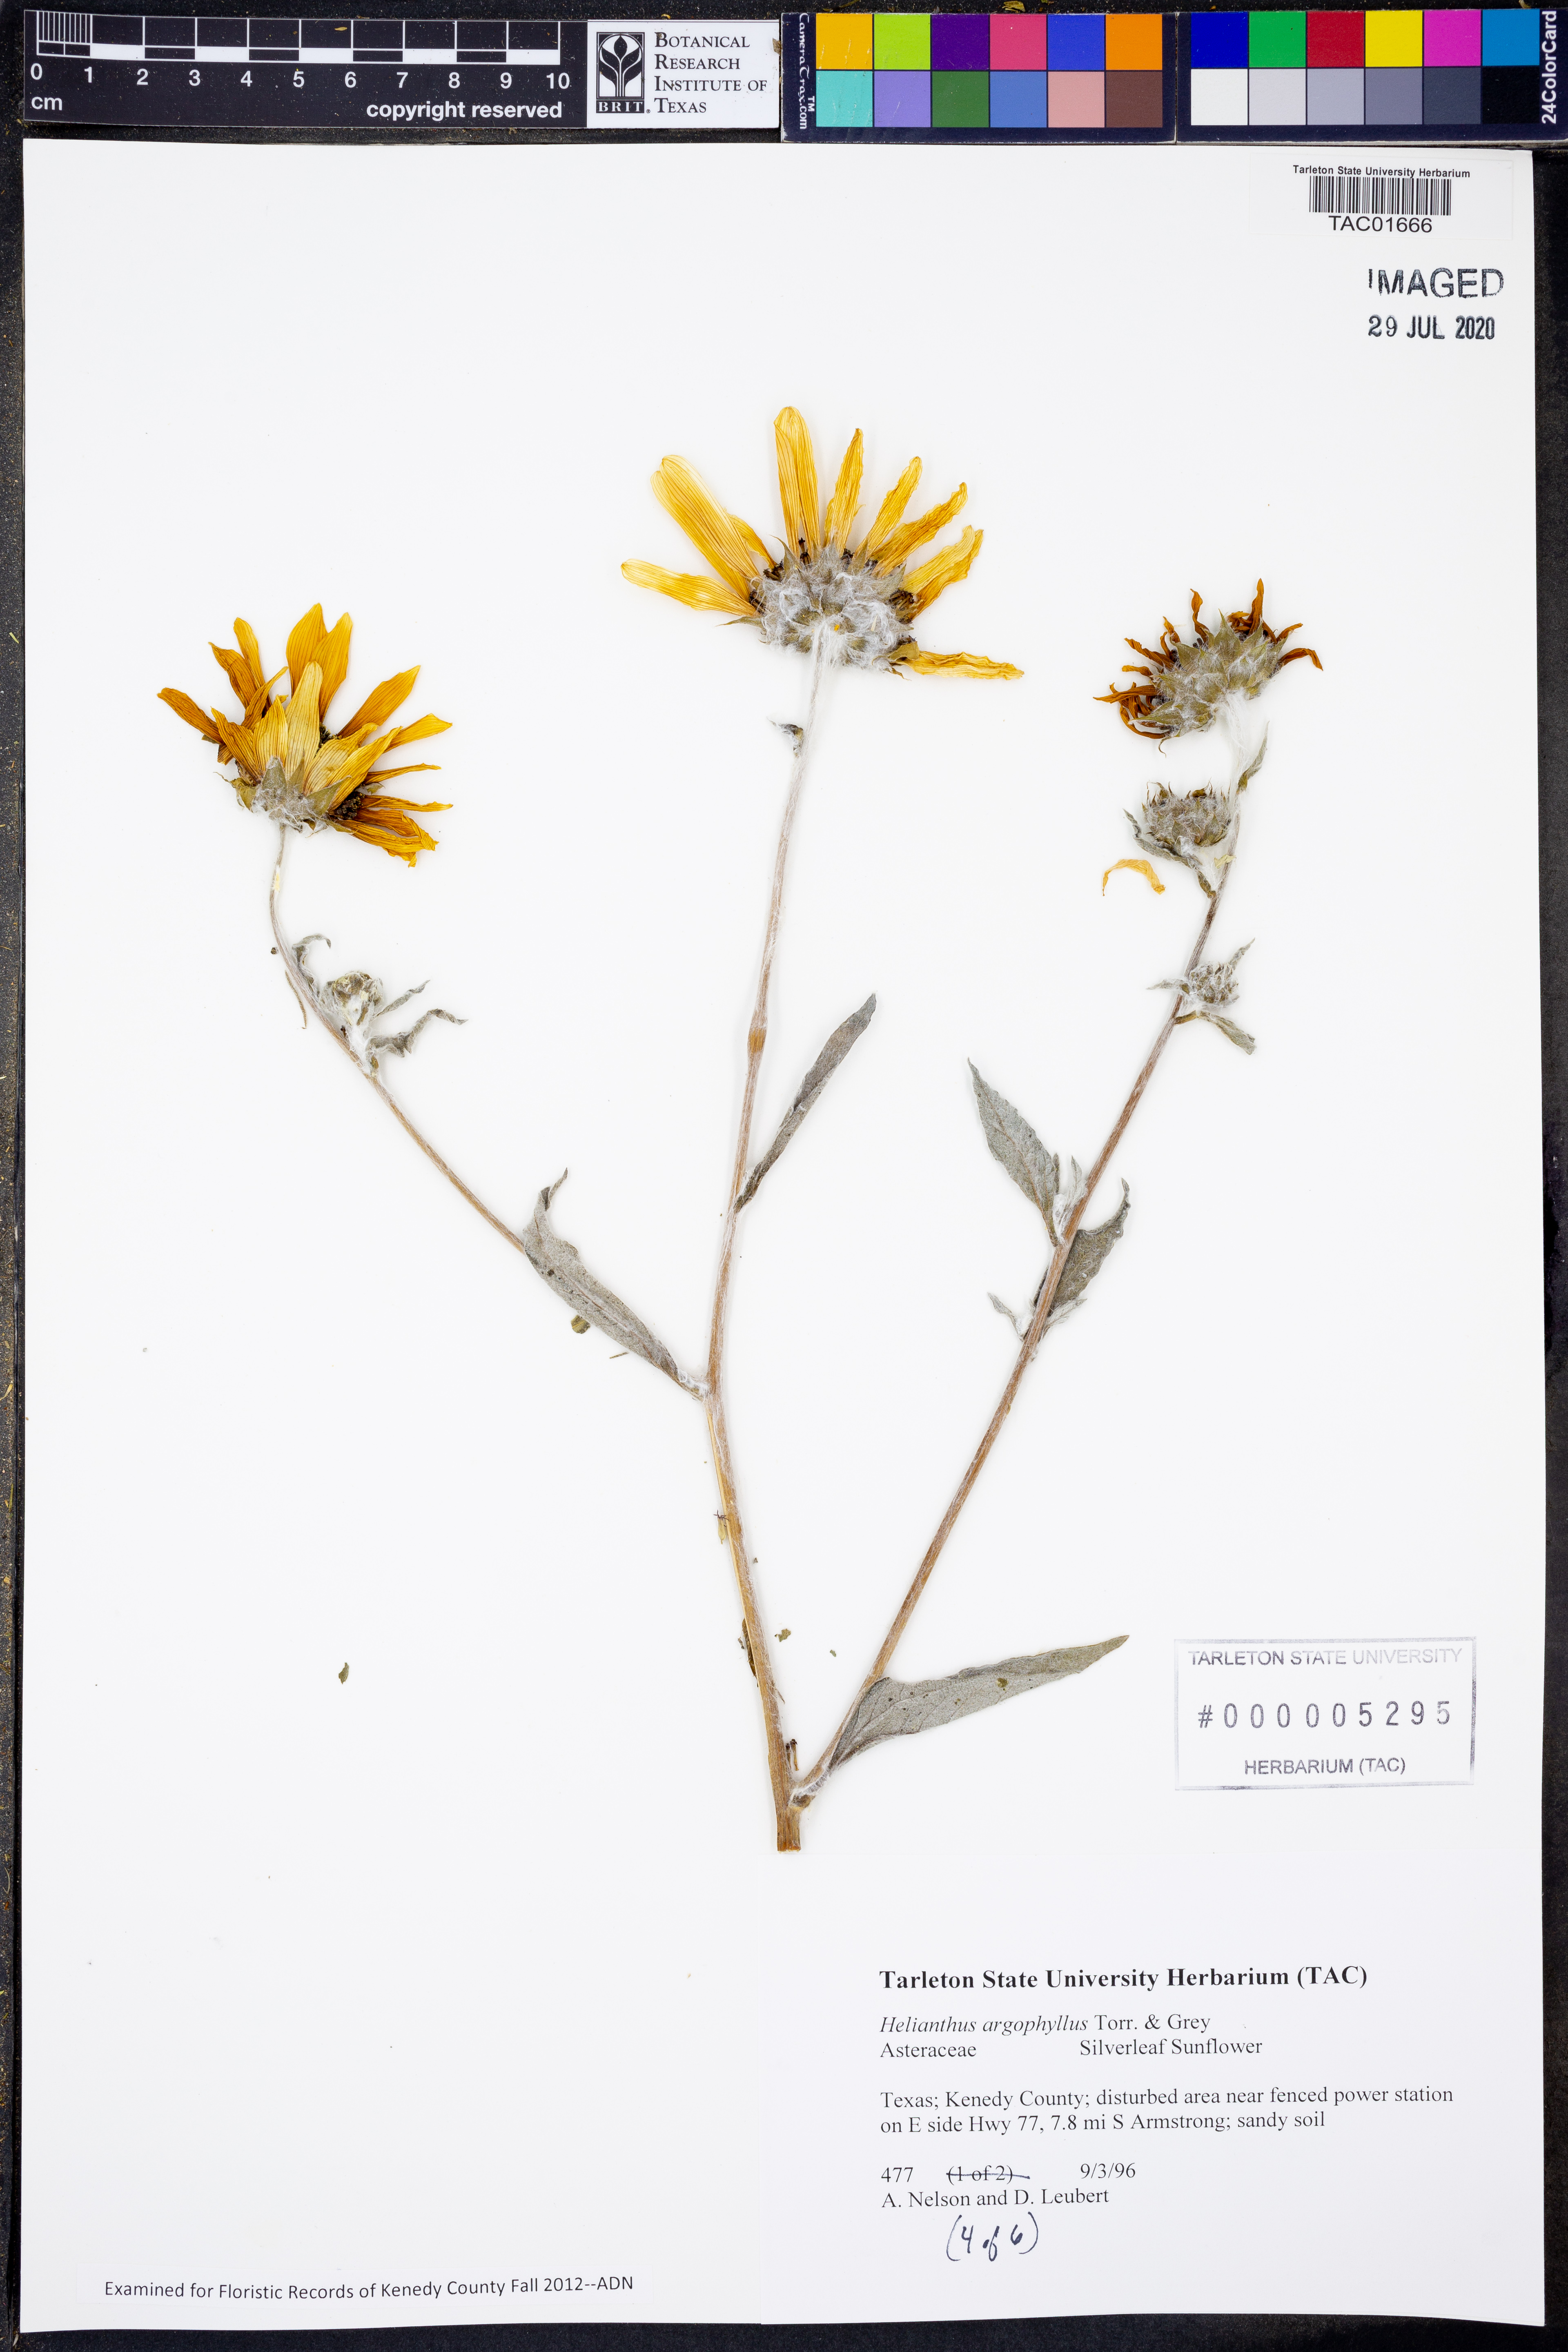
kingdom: Plantae
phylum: Tracheophyta
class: Magnoliopsida
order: Asterales
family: Asteraceae
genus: Helianthus
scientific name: Helianthus argophyllus
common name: Silverleaf sunflower
